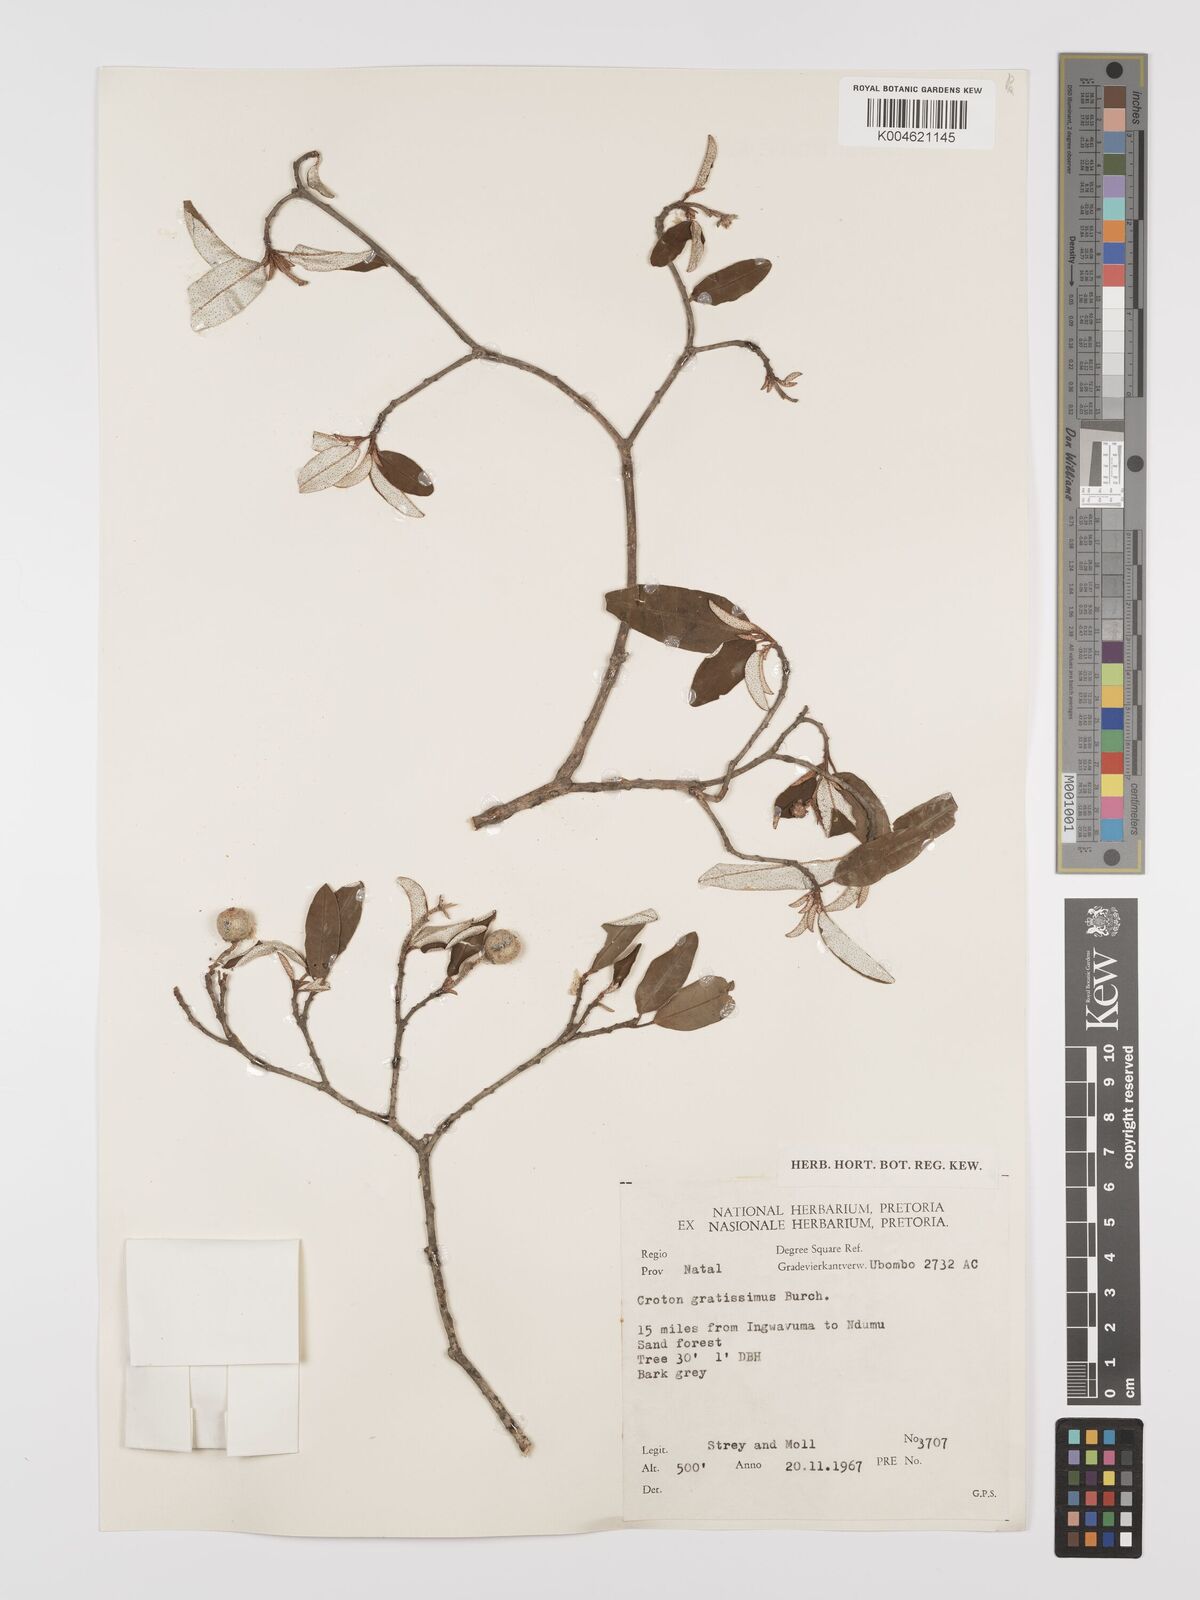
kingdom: Plantae
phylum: Tracheophyta
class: Magnoliopsida
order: Malpighiales
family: Euphorbiaceae
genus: Croton
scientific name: Croton gratissimus
